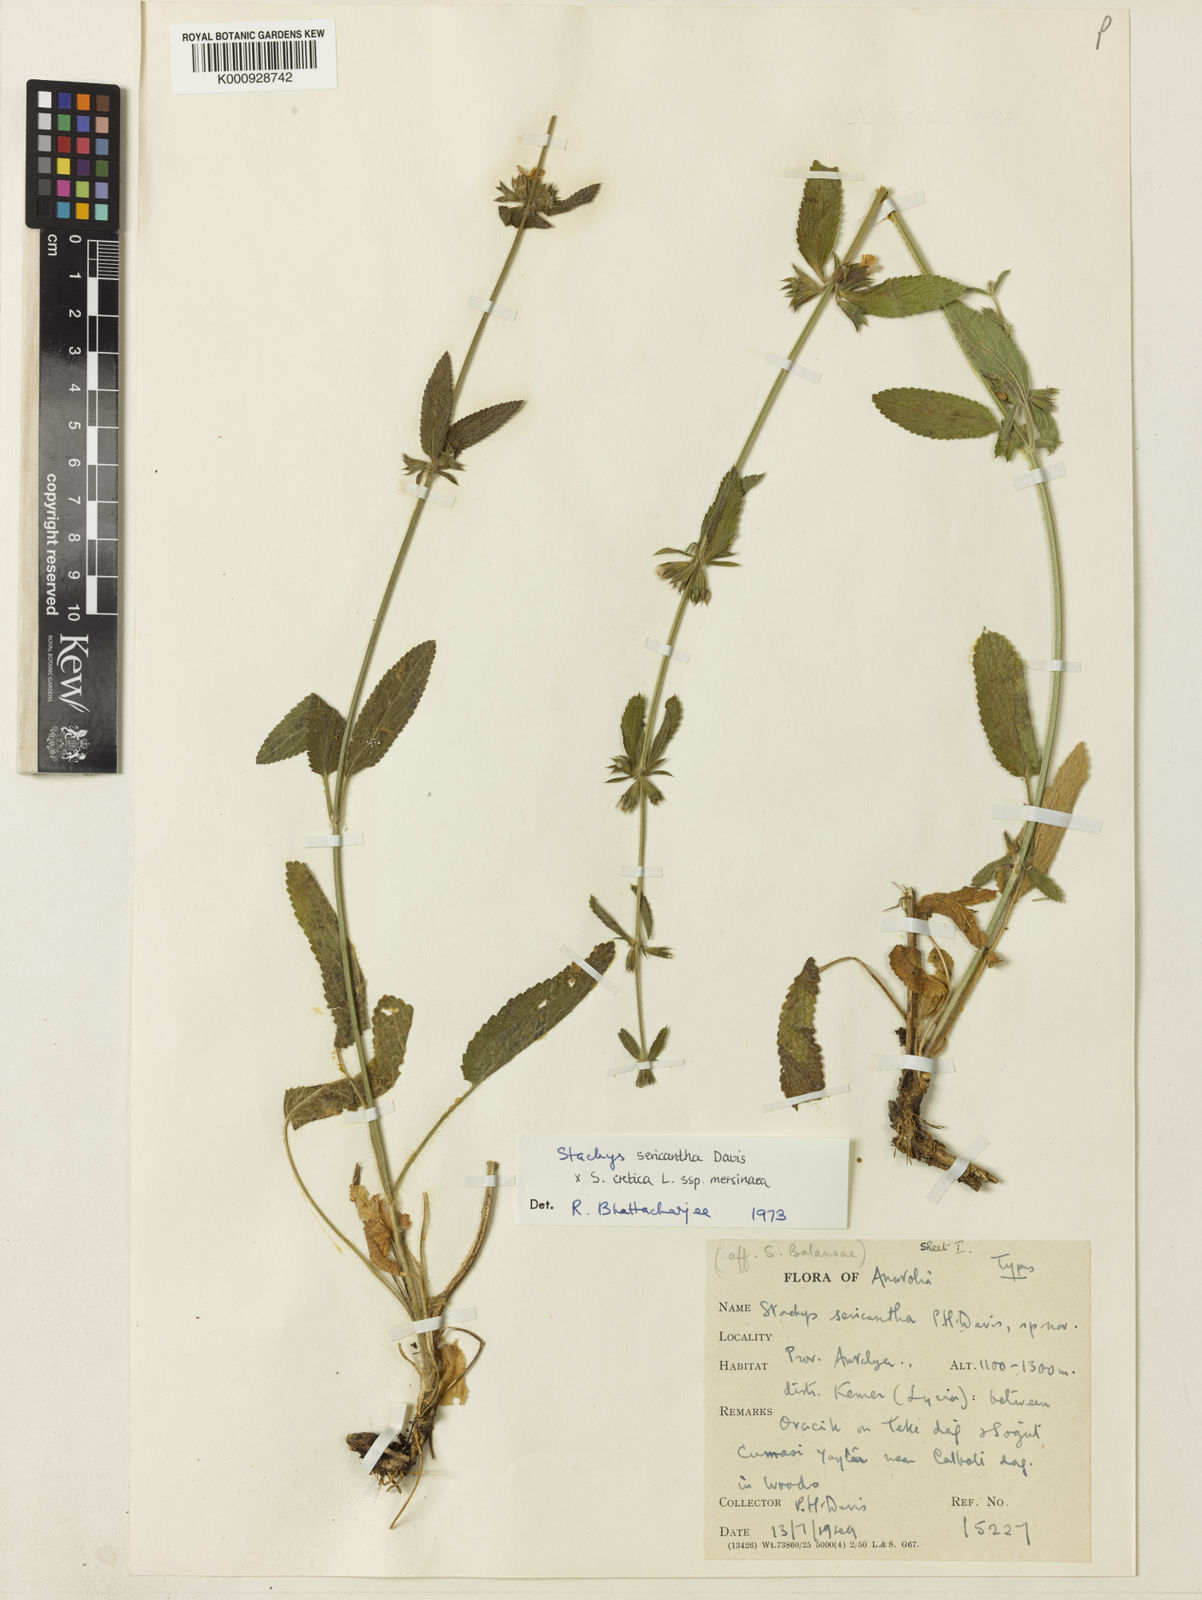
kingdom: Plantae
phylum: Tracheophyta
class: Magnoliopsida
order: Lamiales
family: Lamiaceae
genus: Stachys
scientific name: Stachys sericantha
